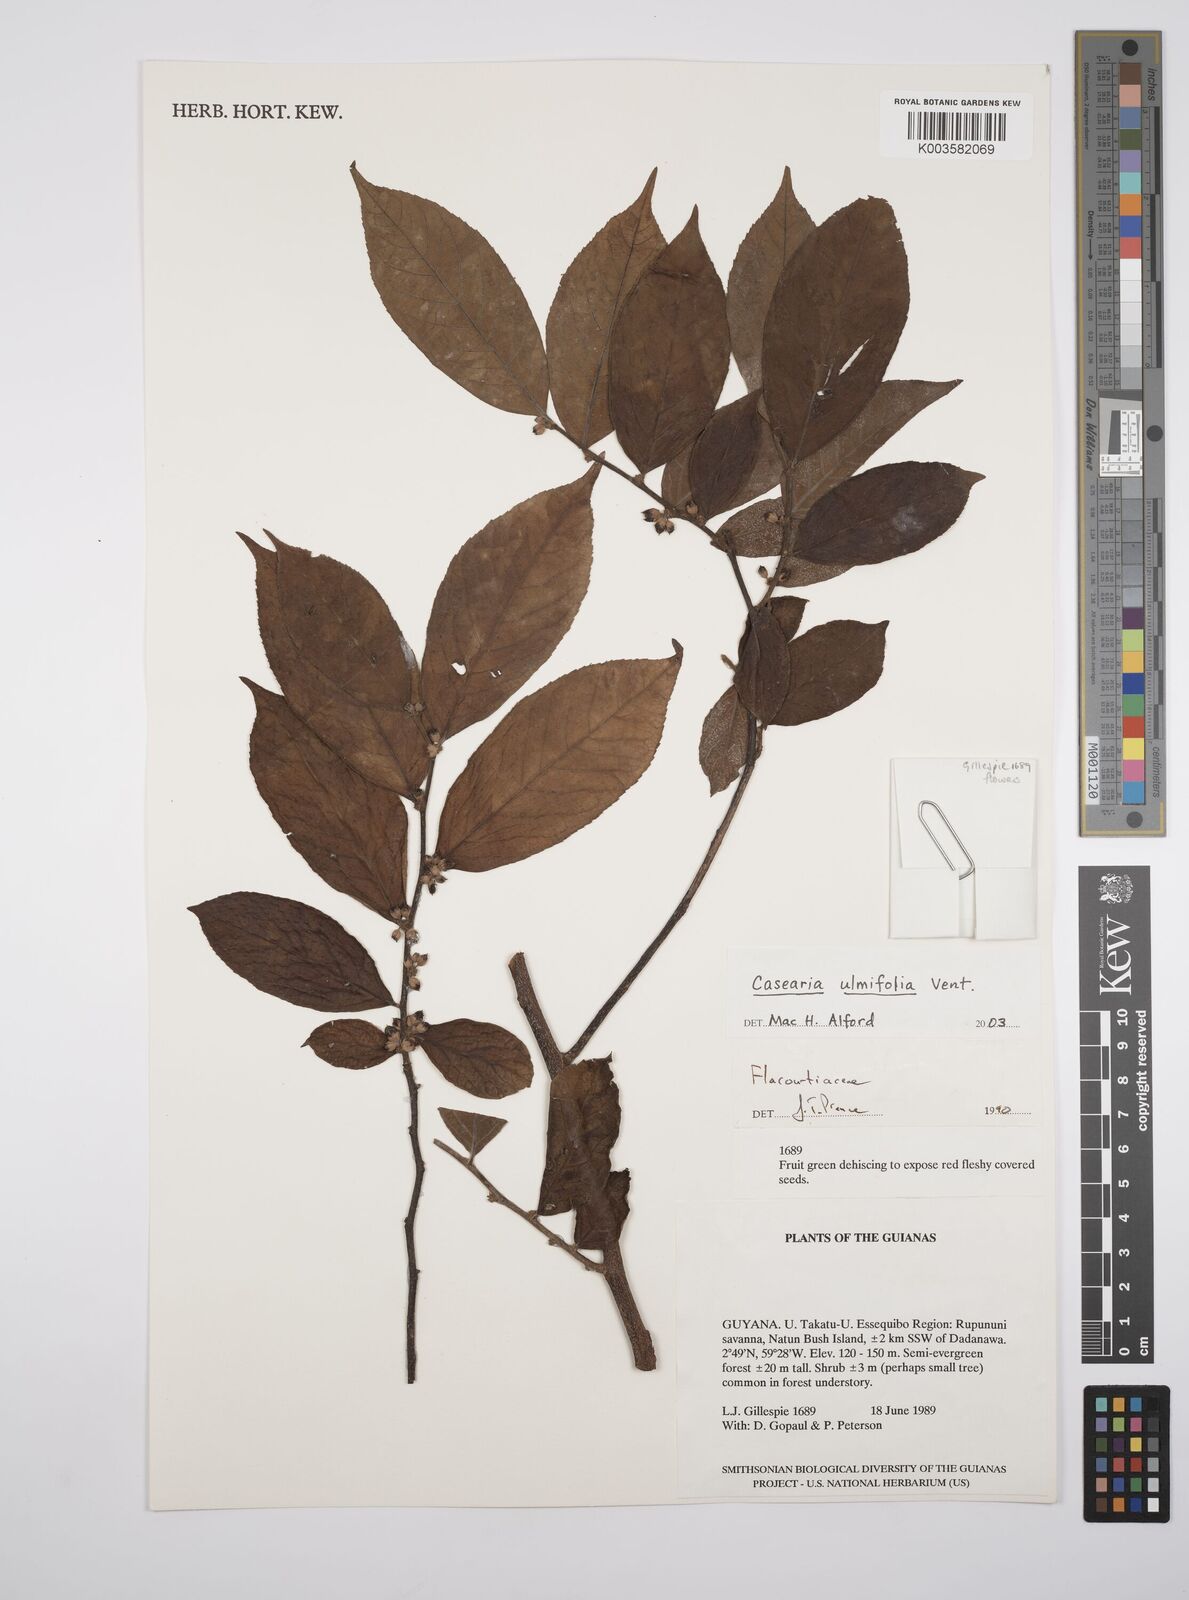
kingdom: Plantae
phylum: Tracheophyta
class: Magnoliopsida
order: Malpighiales
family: Salicaceae
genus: Casearia
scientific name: Casearia ulmifolia
